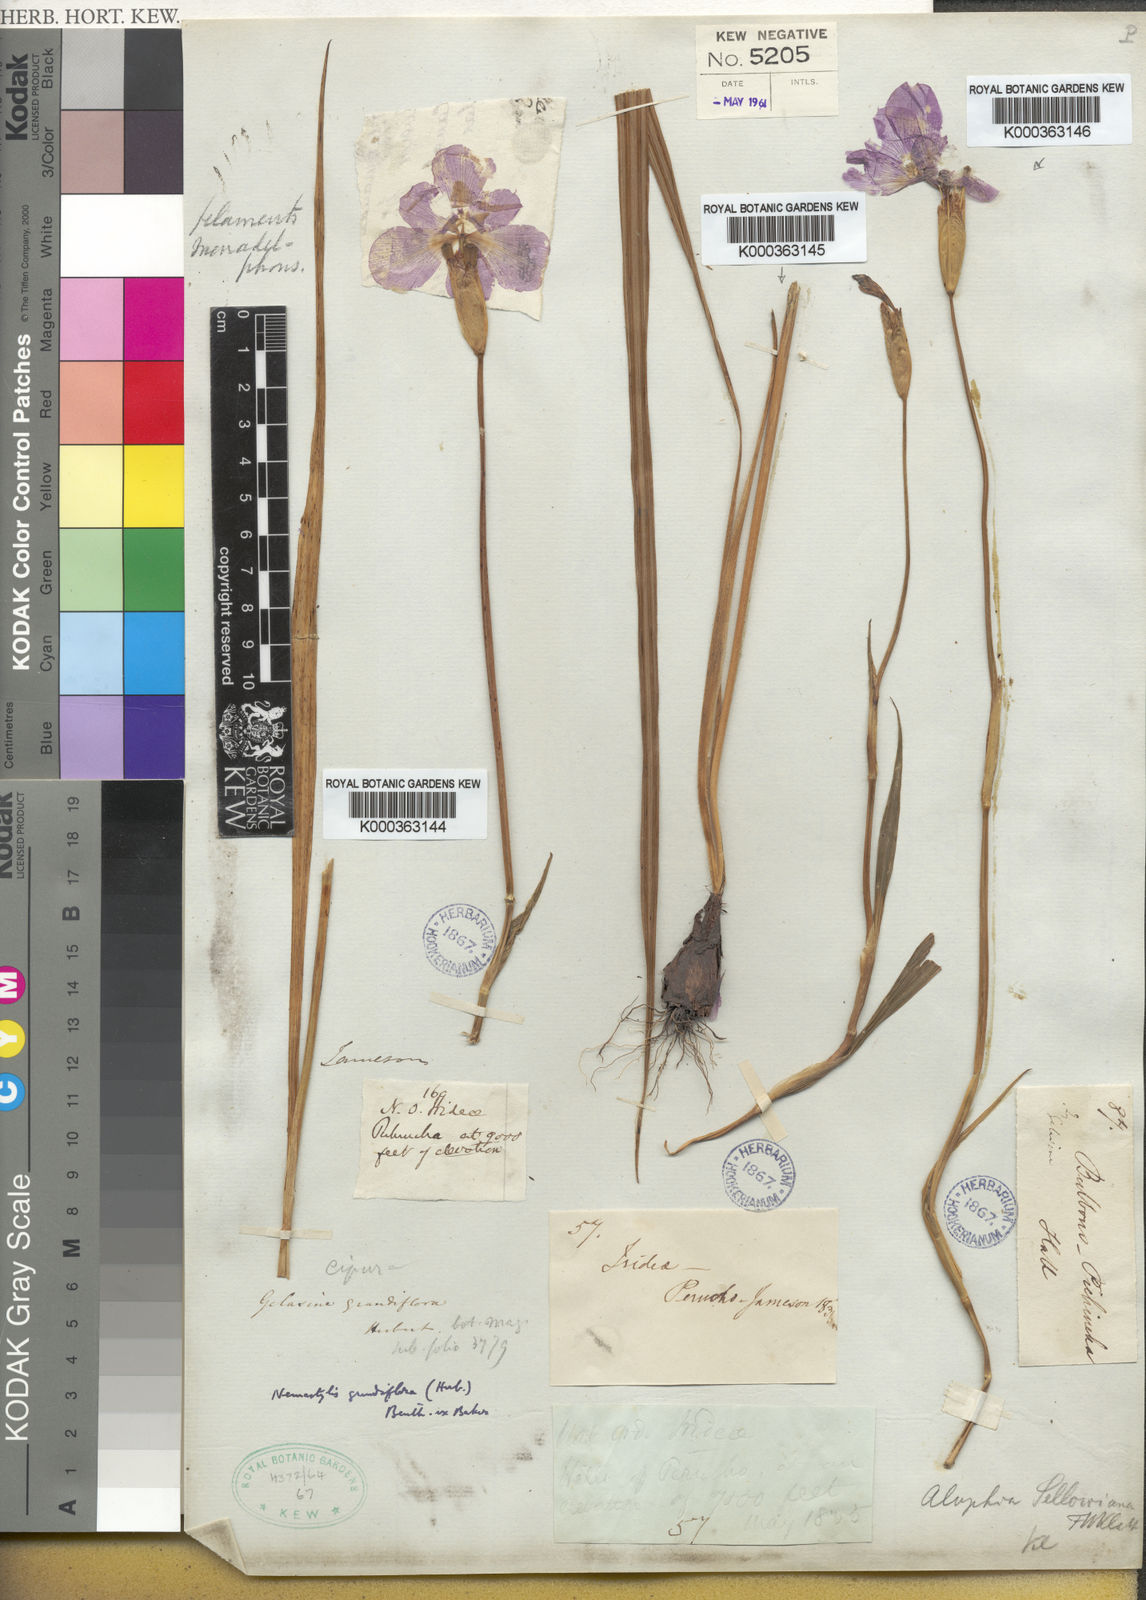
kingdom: Plantae
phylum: Tracheophyta
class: Liliopsida
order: Asparagales
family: Iridaceae
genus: Nemastylis
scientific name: Nemastylis
